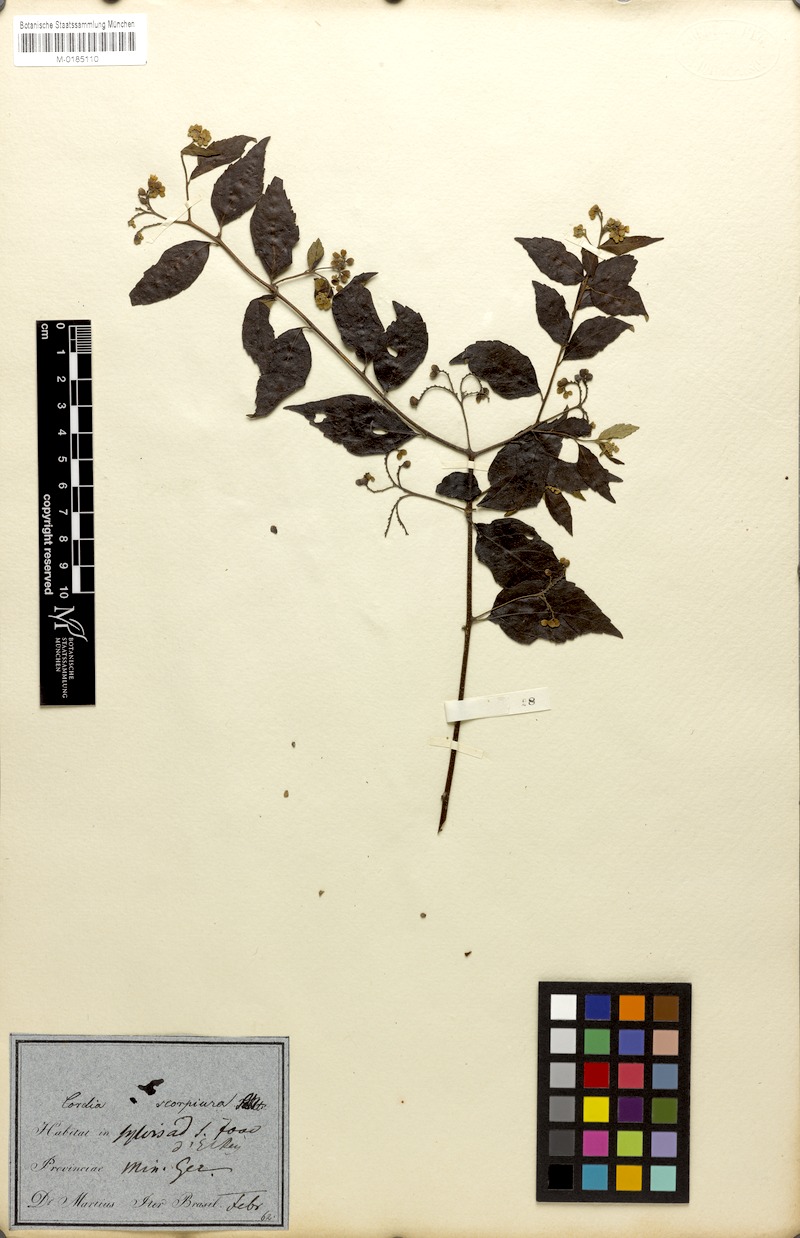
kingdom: Plantae
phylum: Tracheophyta
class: Magnoliopsida
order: Boraginales
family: Cordiaceae
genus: Varronia
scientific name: Varronia polycephala
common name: Black-sage
